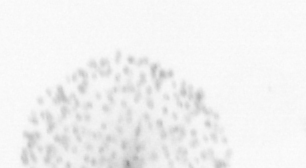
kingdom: Animalia
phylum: Chordata
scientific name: Chordata
